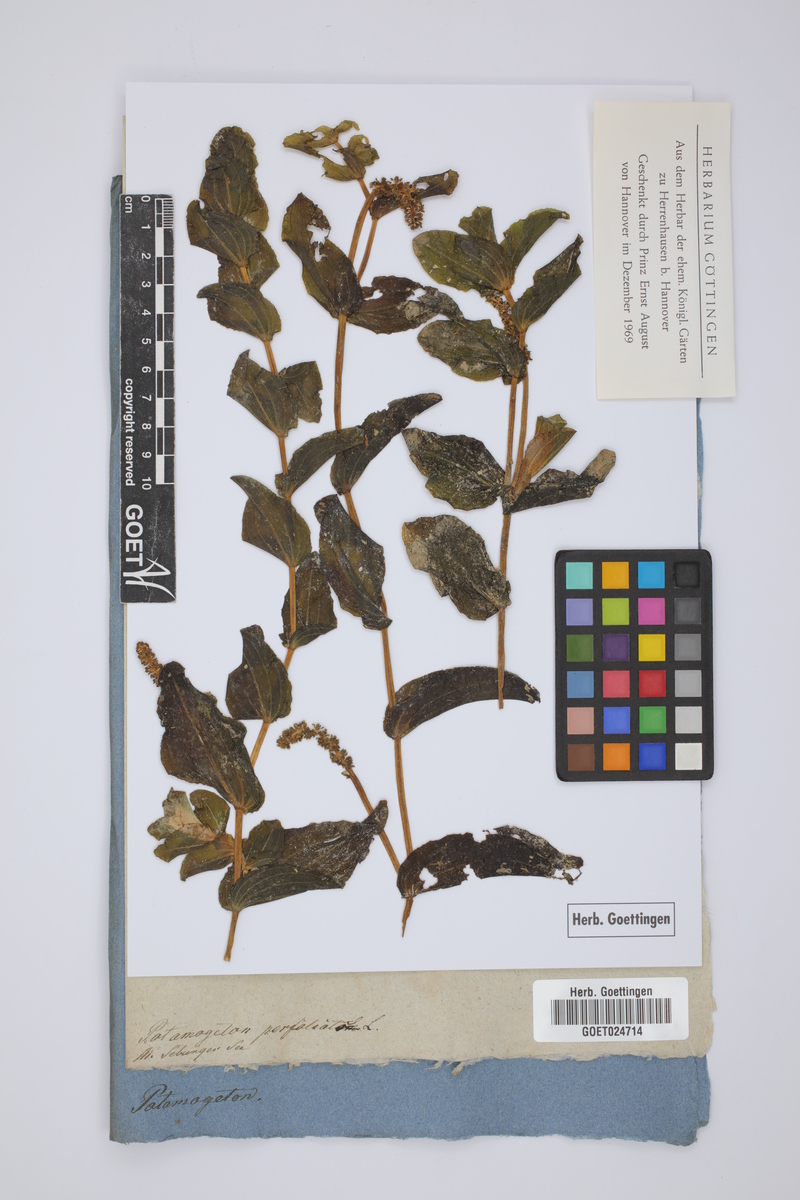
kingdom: Plantae
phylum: Tracheophyta
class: Liliopsida
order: Alismatales
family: Potamogetonaceae
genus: Potamogeton
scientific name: Potamogeton perfoliatus
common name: Perfoliate pondweed
